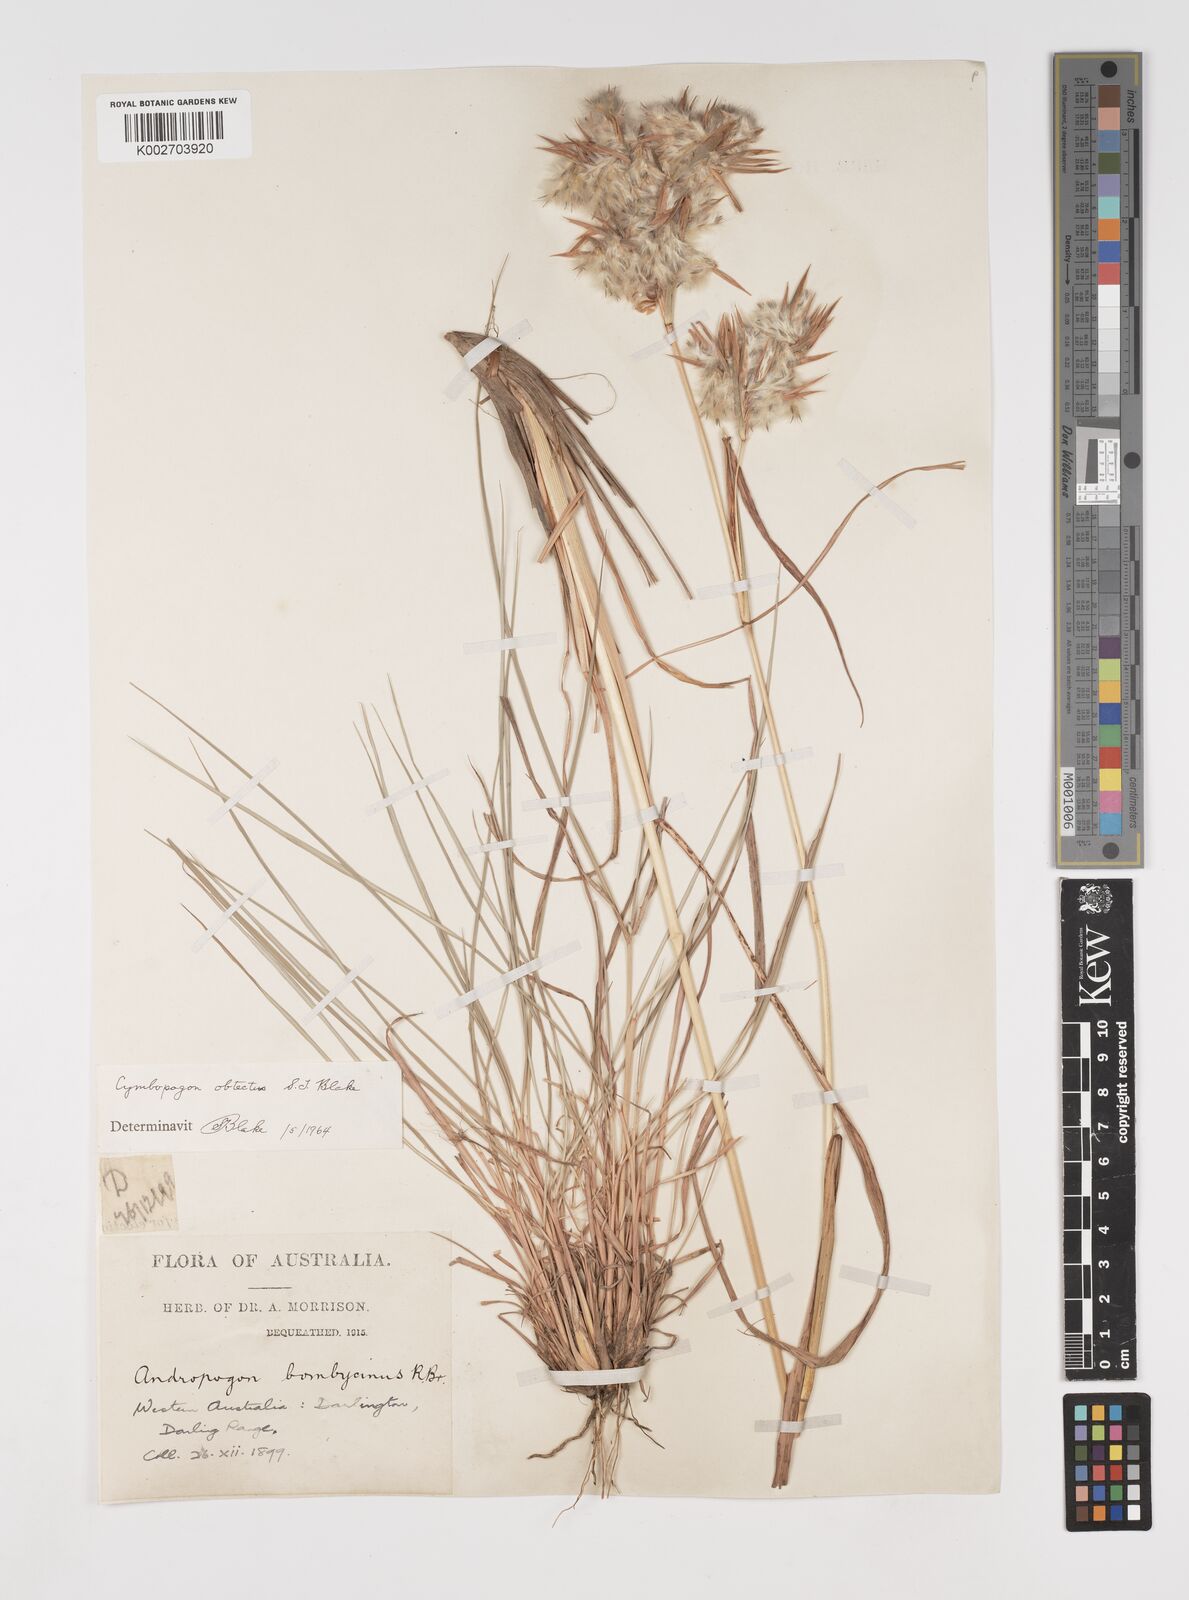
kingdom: Plantae
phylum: Tracheophyta
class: Liliopsida
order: Poales
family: Poaceae
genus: Cymbopogon
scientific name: Cymbopogon obtectus
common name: Silky heads
